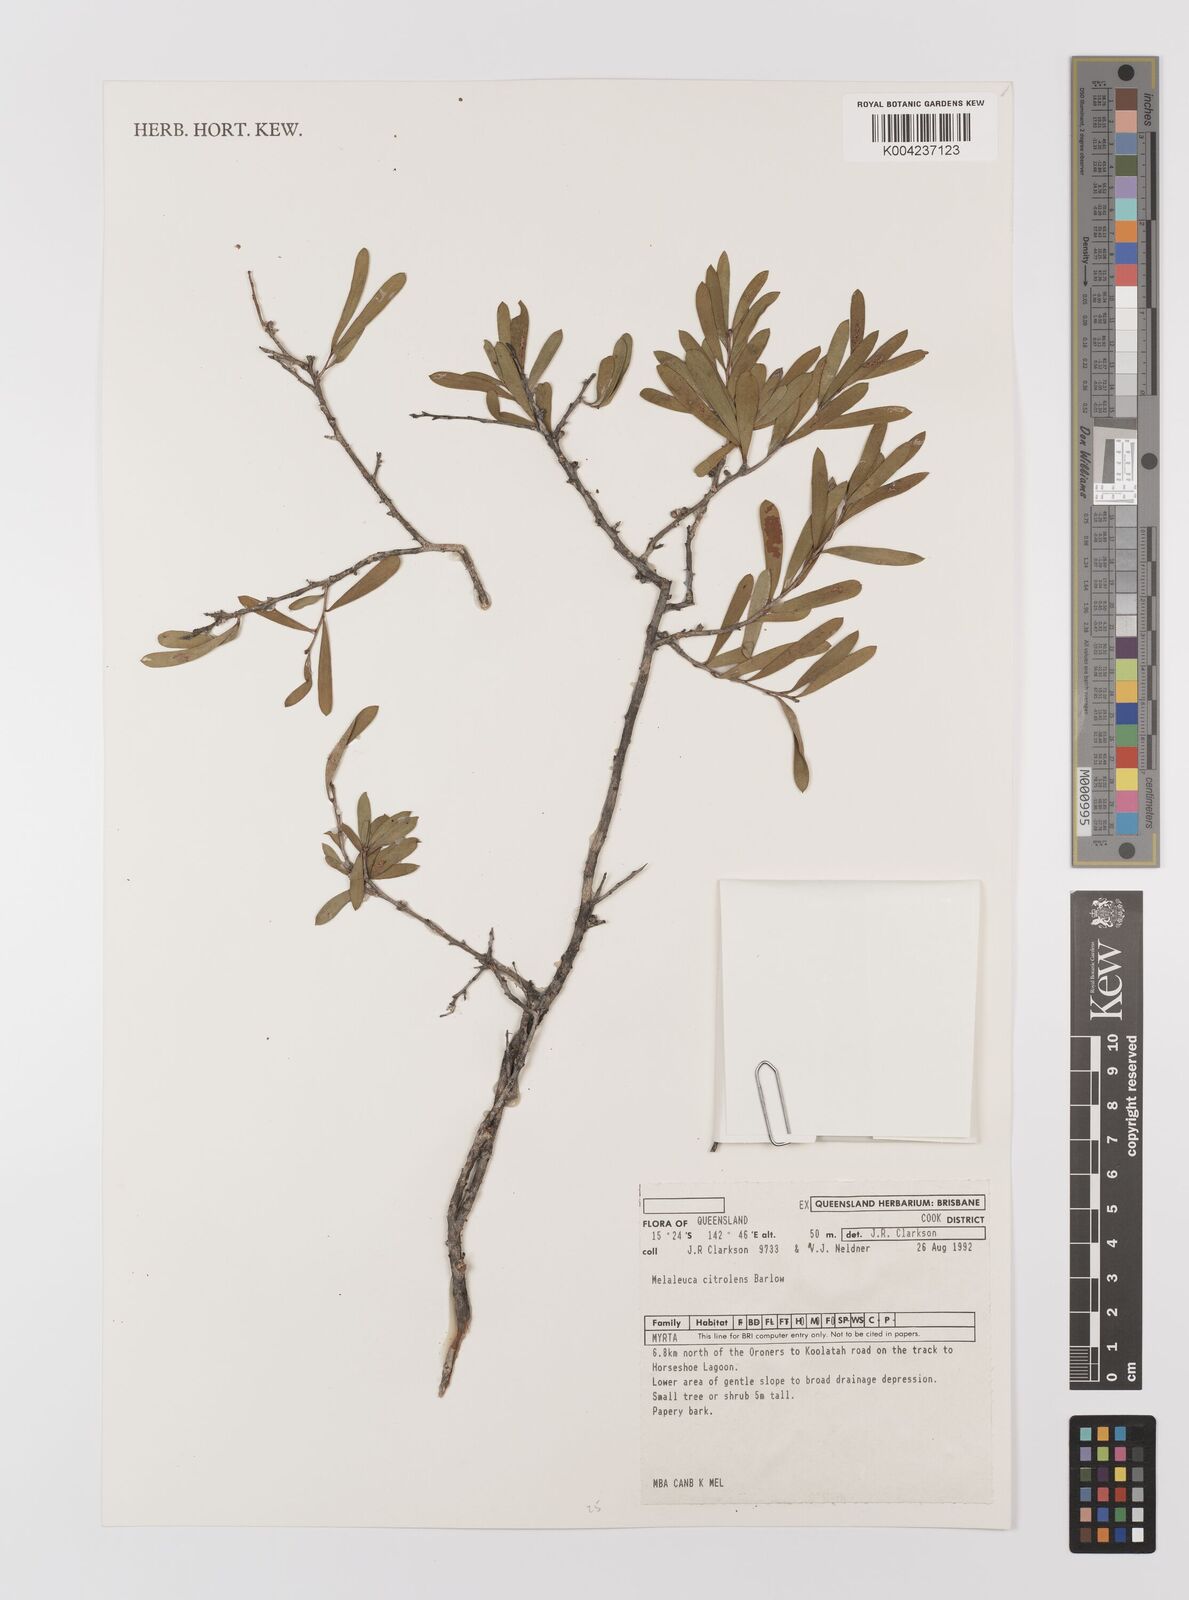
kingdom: Plantae
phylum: Tracheophyta
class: Magnoliopsida
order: Myrtales
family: Myrtaceae
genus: Melaleuca
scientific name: Melaleuca citrolens
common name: Lemon-scented paperbark
